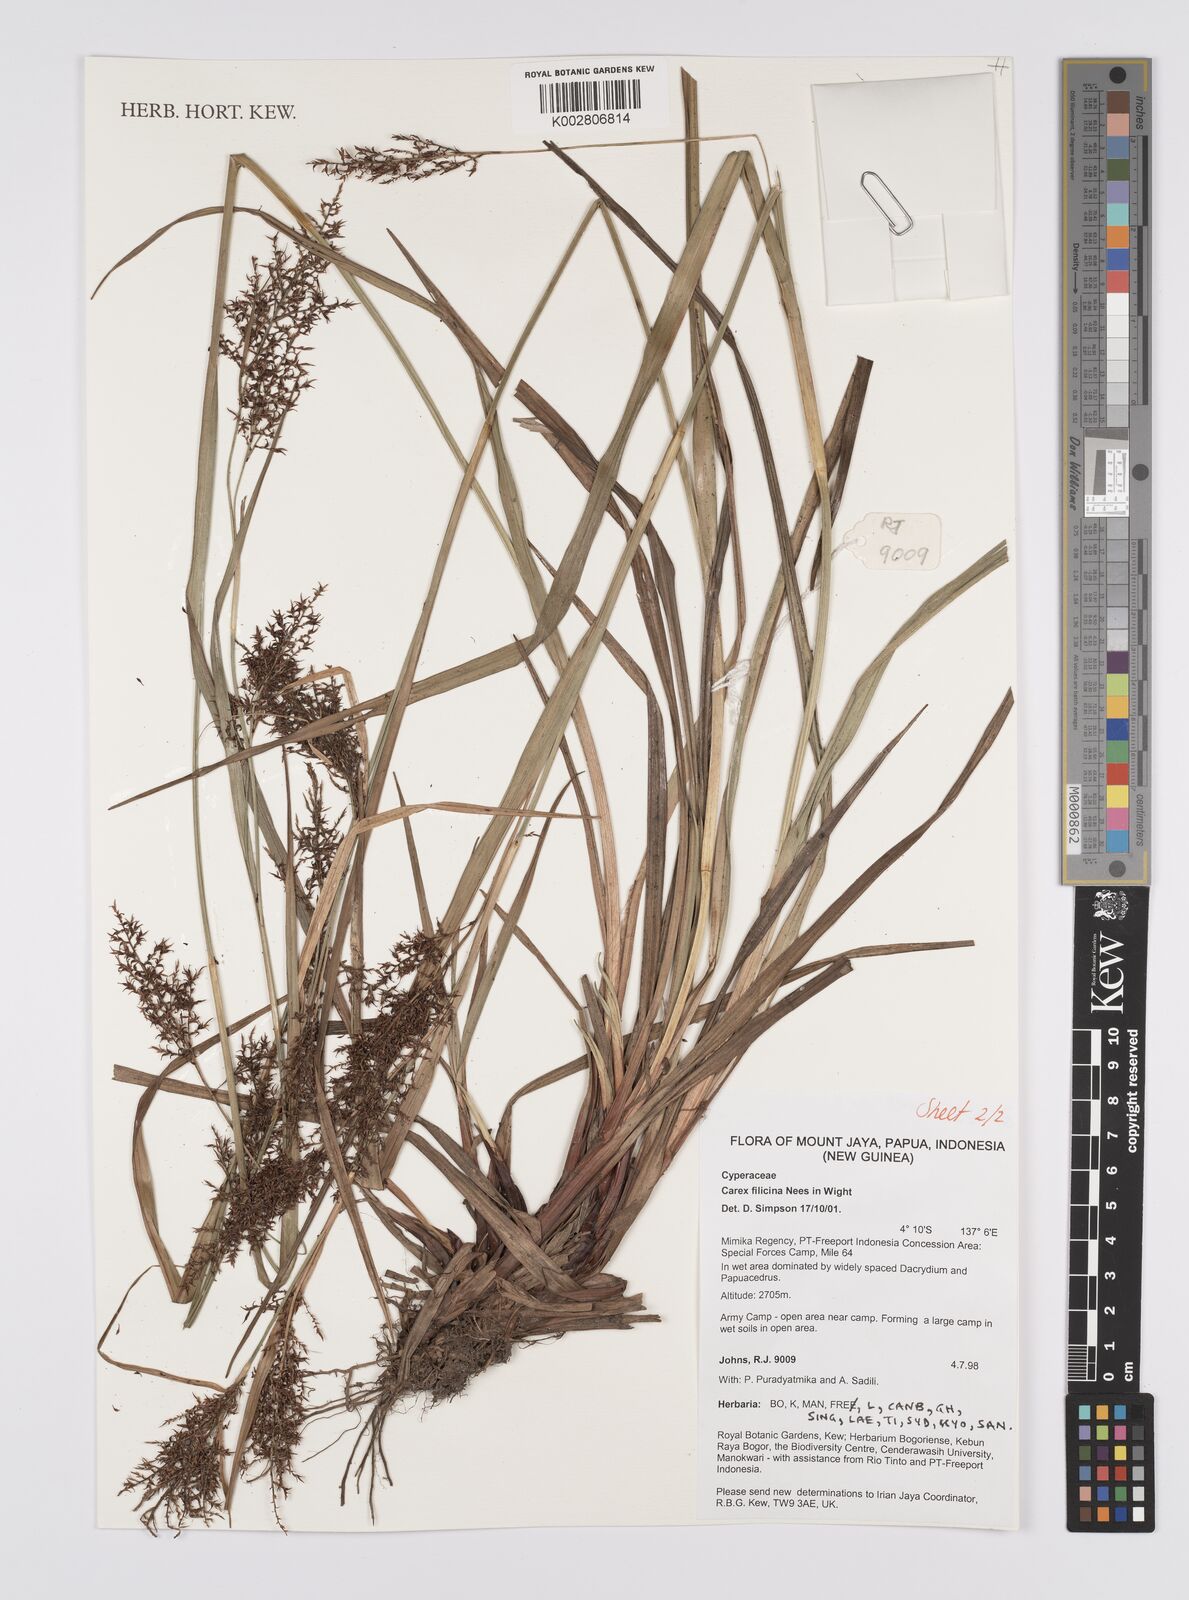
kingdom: Plantae
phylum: Tracheophyta
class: Liliopsida
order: Poales
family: Cyperaceae
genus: Carex
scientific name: Carex filicina
